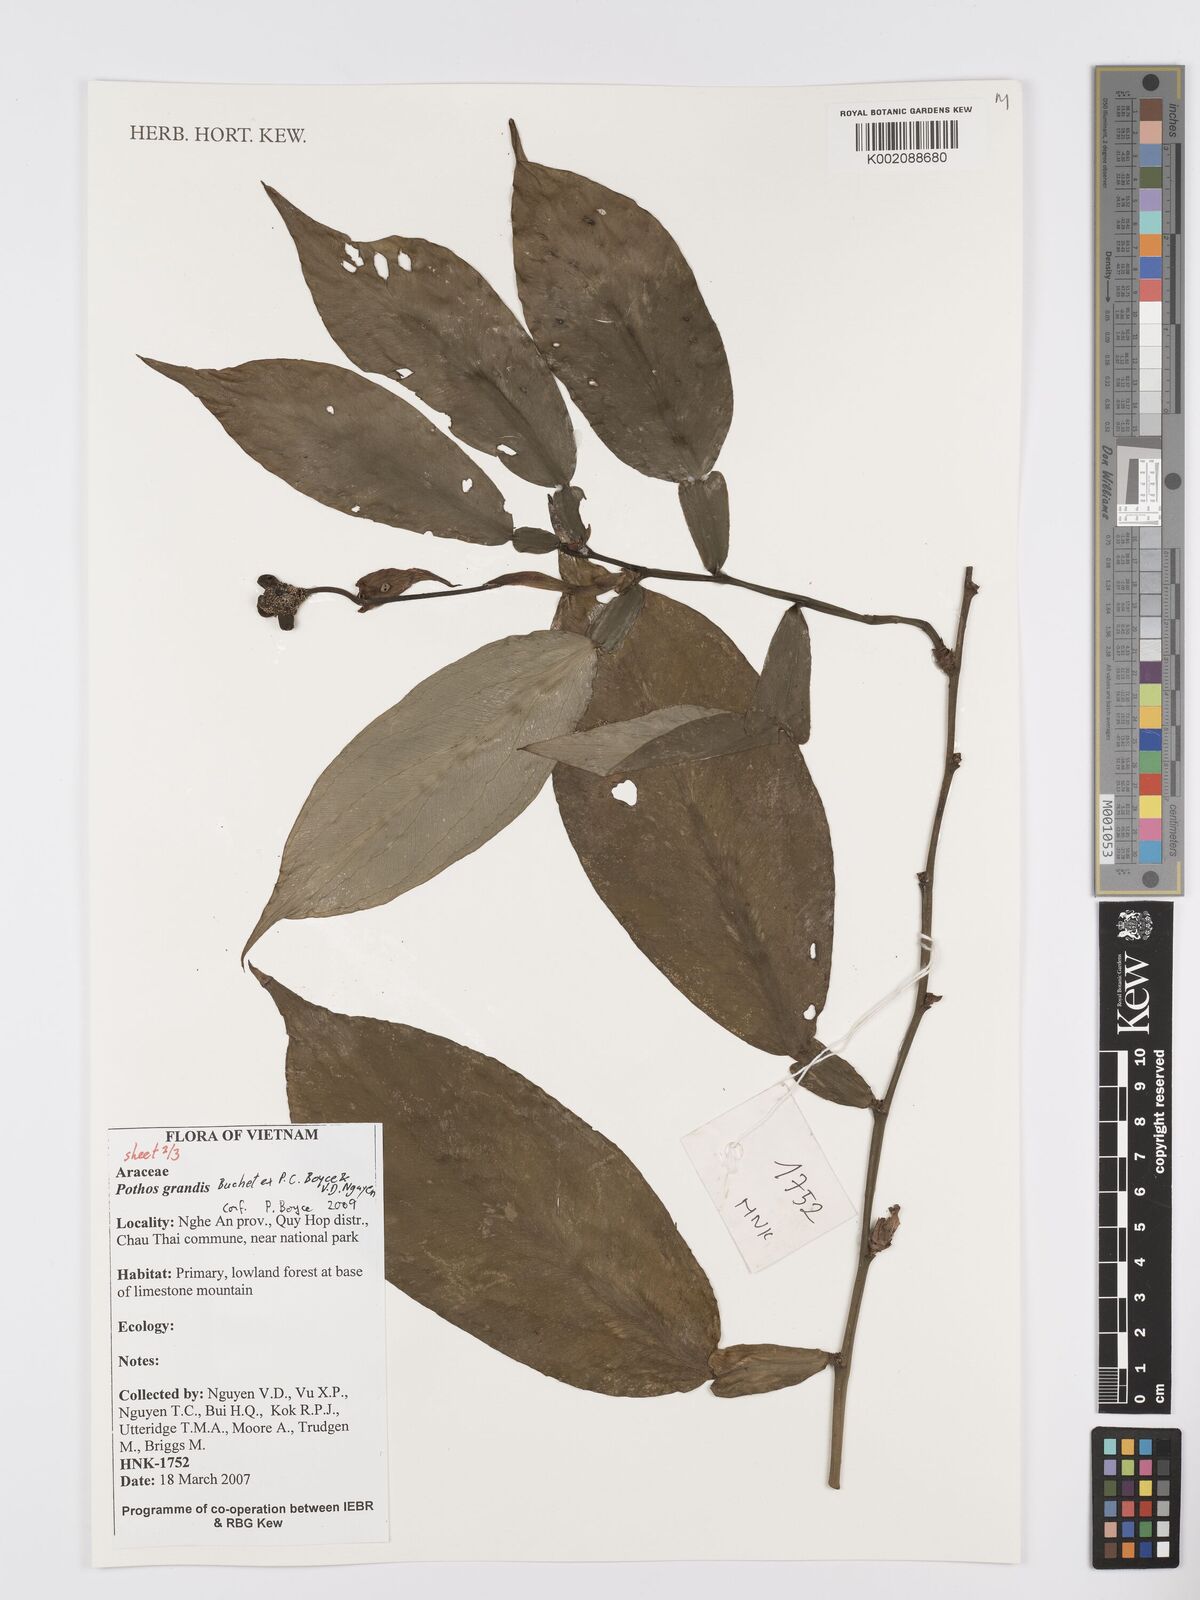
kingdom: Plantae
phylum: Tracheophyta
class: Liliopsida
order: Alismatales
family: Araceae
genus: Pothos
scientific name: Pothos grandis
